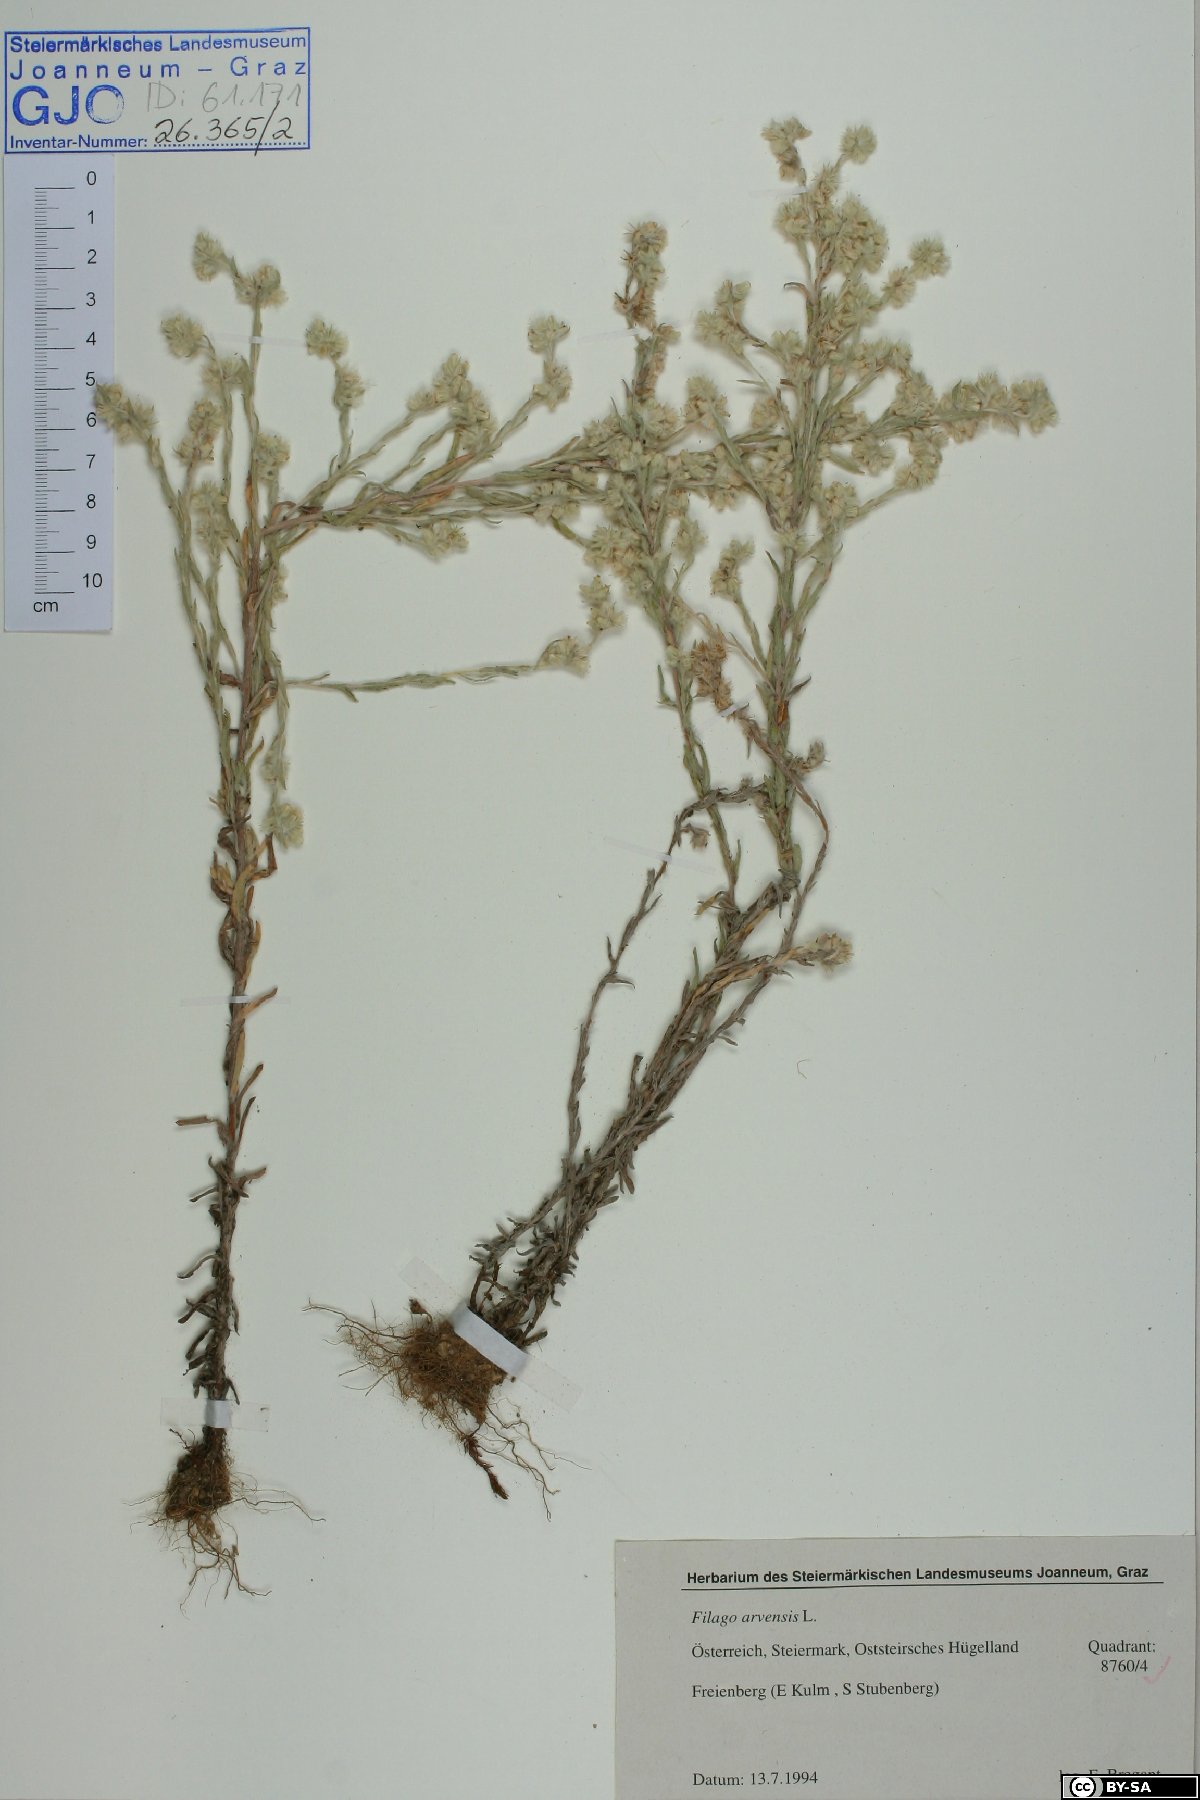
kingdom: Plantae
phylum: Tracheophyta
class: Magnoliopsida
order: Asterales
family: Asteraceae
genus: Filago
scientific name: Filago arvensis
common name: Field cudweed
